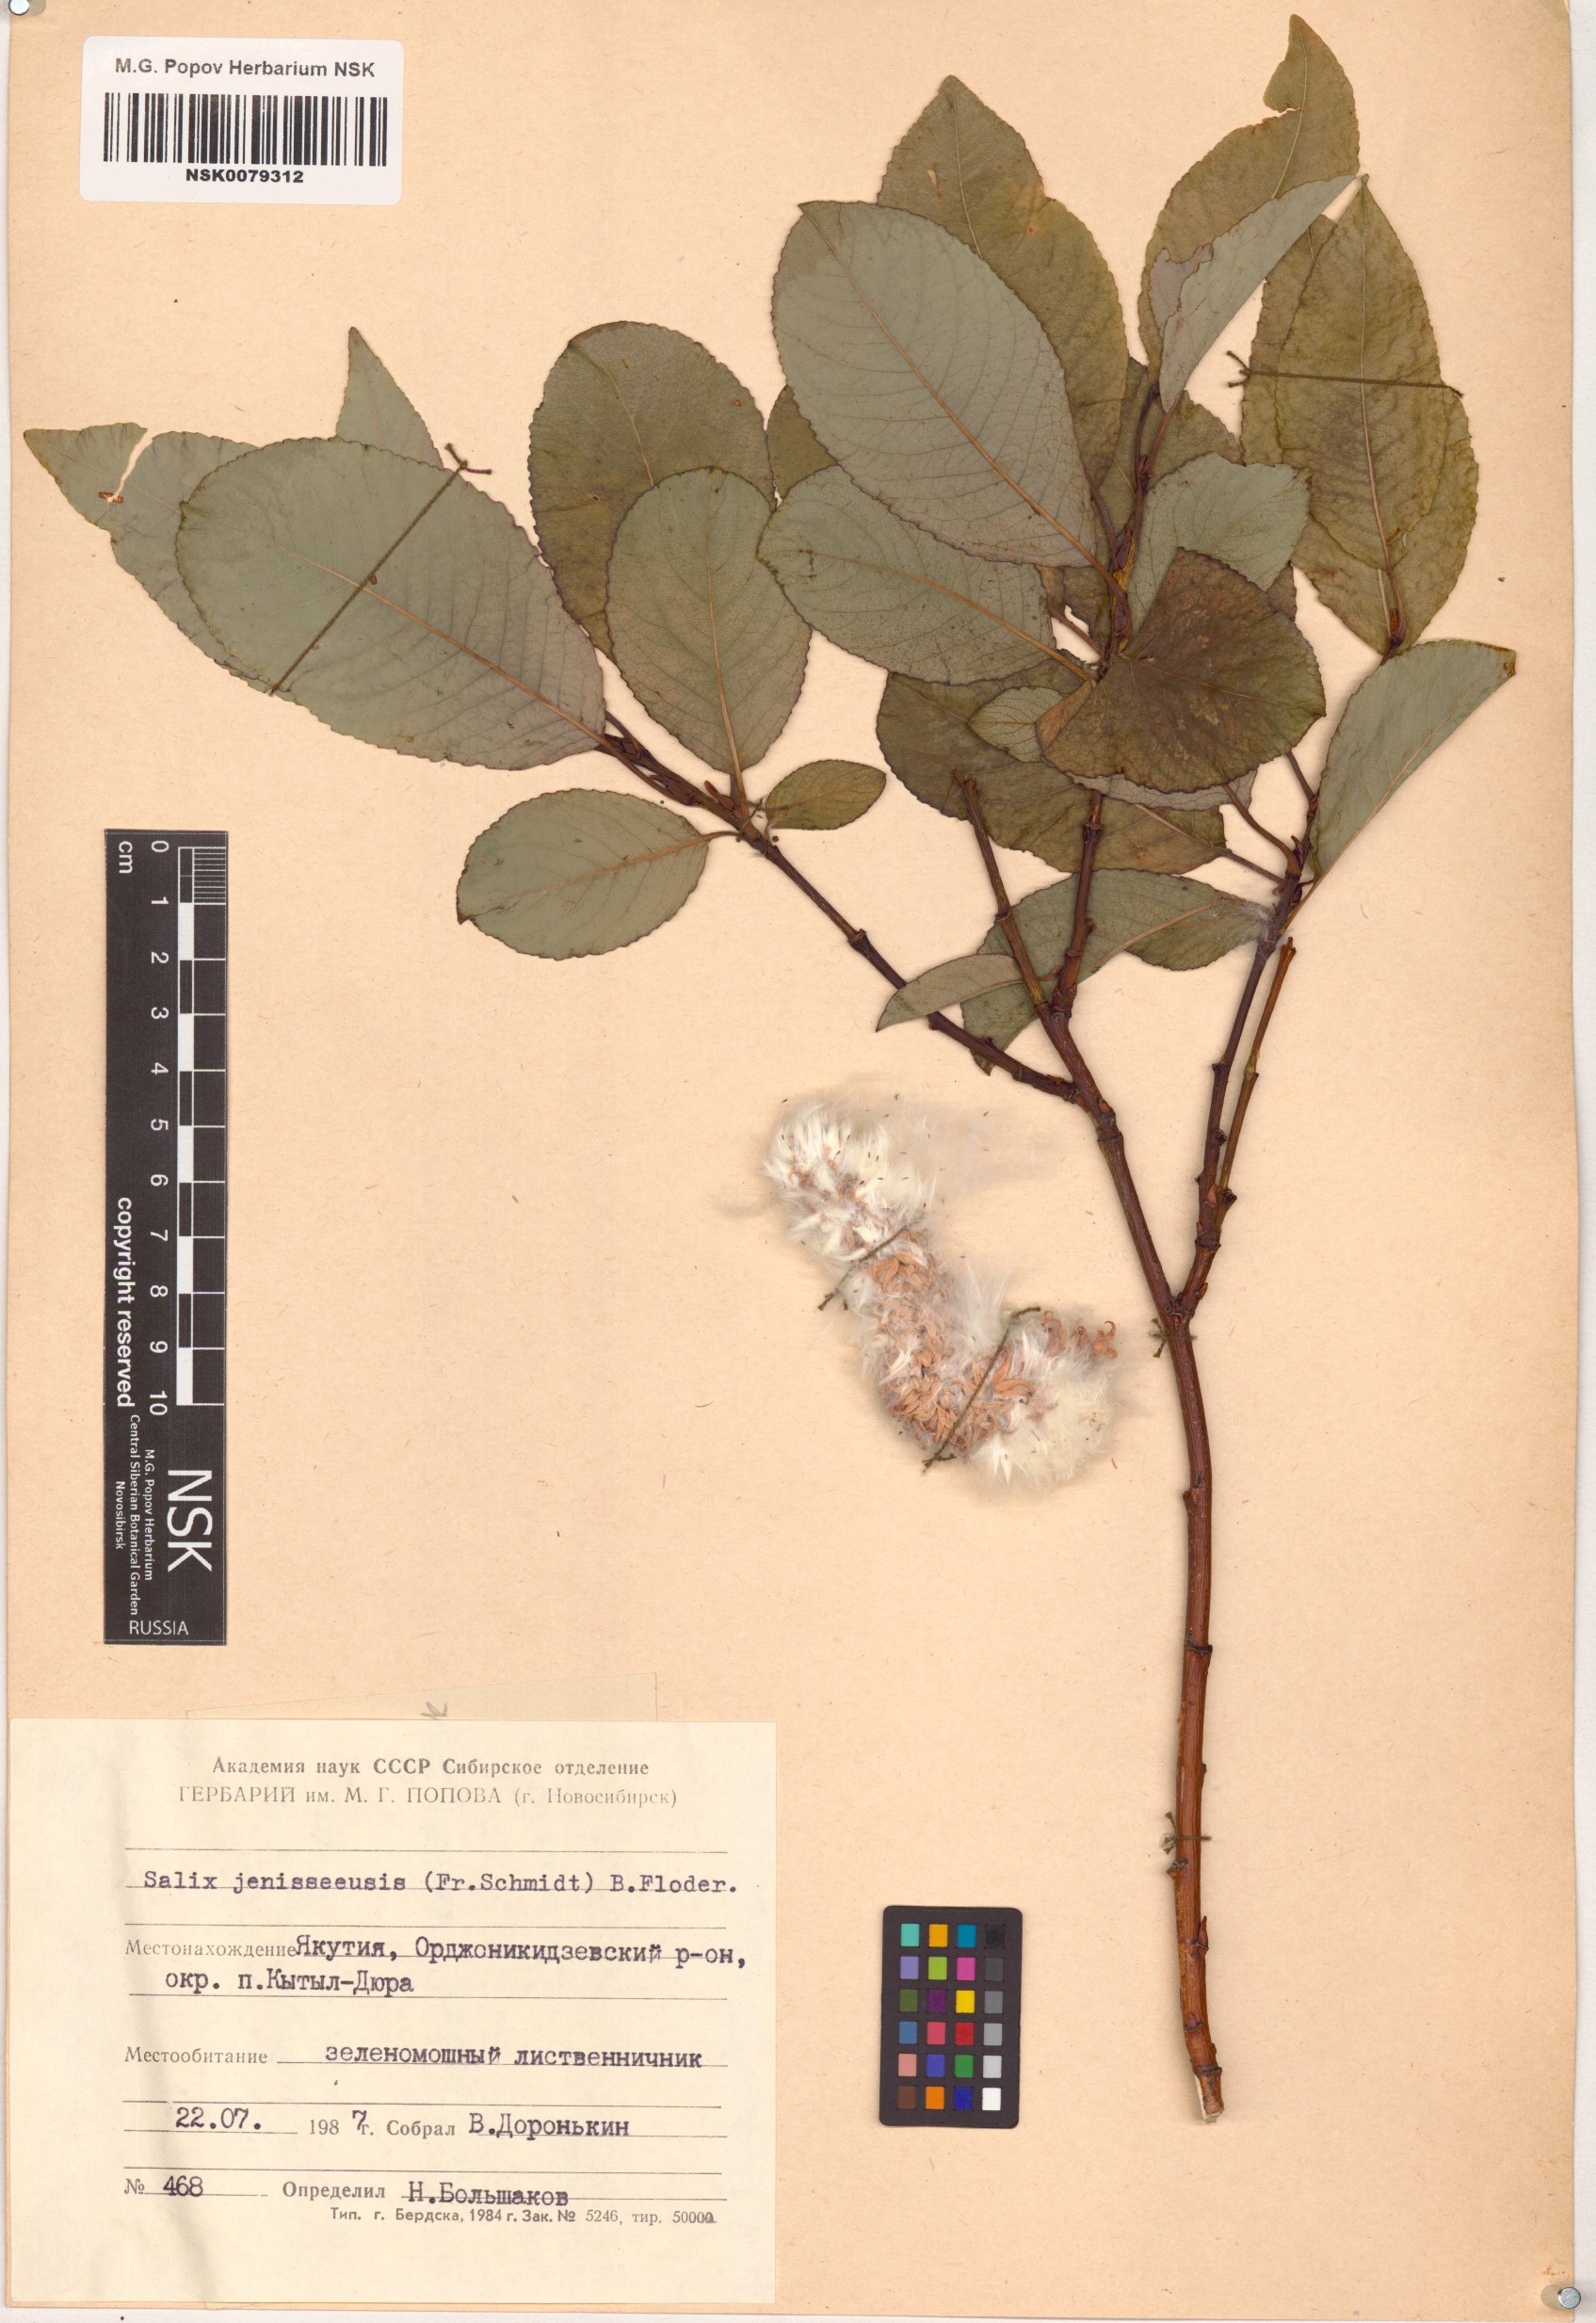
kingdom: Plantae
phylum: Tracheophyta
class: Magnoliopsida
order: Malpighiales
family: Salicaceae
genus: Salix
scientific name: Salix jenisseensis
